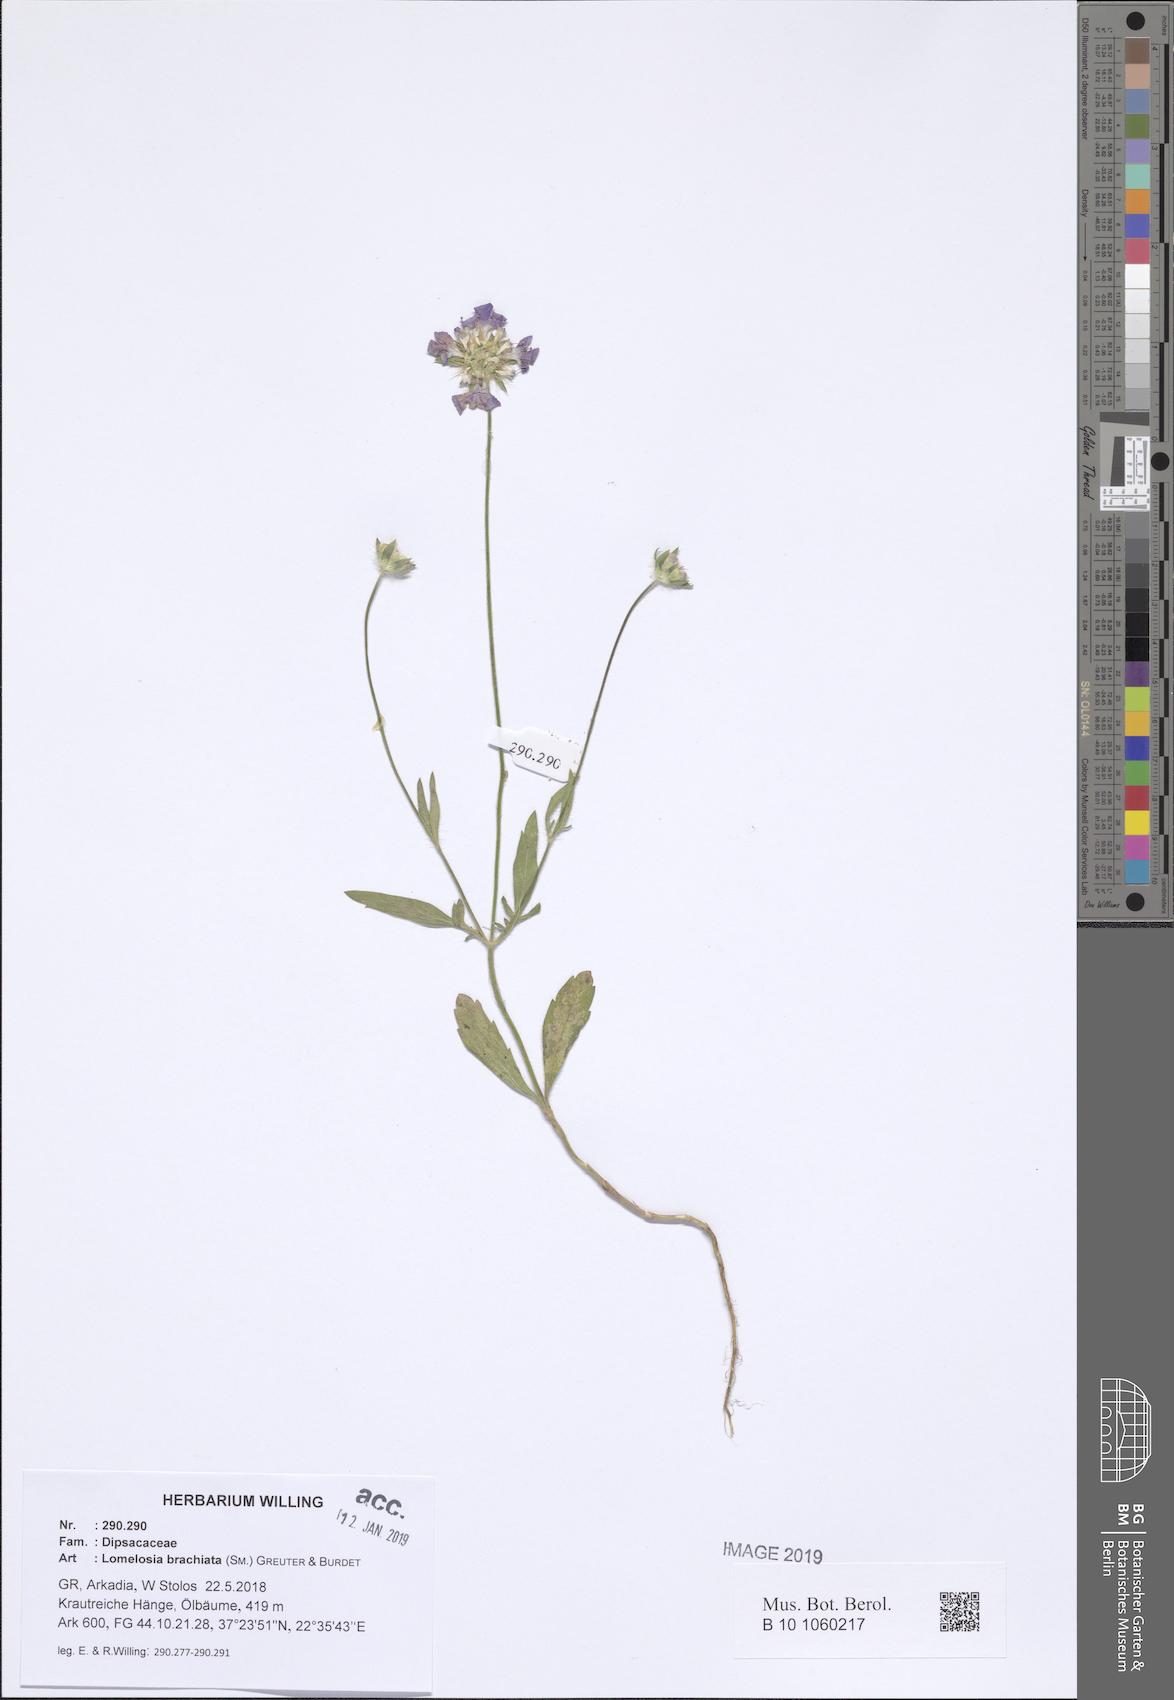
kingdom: Plantae
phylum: Tracheophyta
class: Magnoliopsida
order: Dipsacales
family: Caprifoliaceae
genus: Lomelosia
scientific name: Lomelosia brachiata
